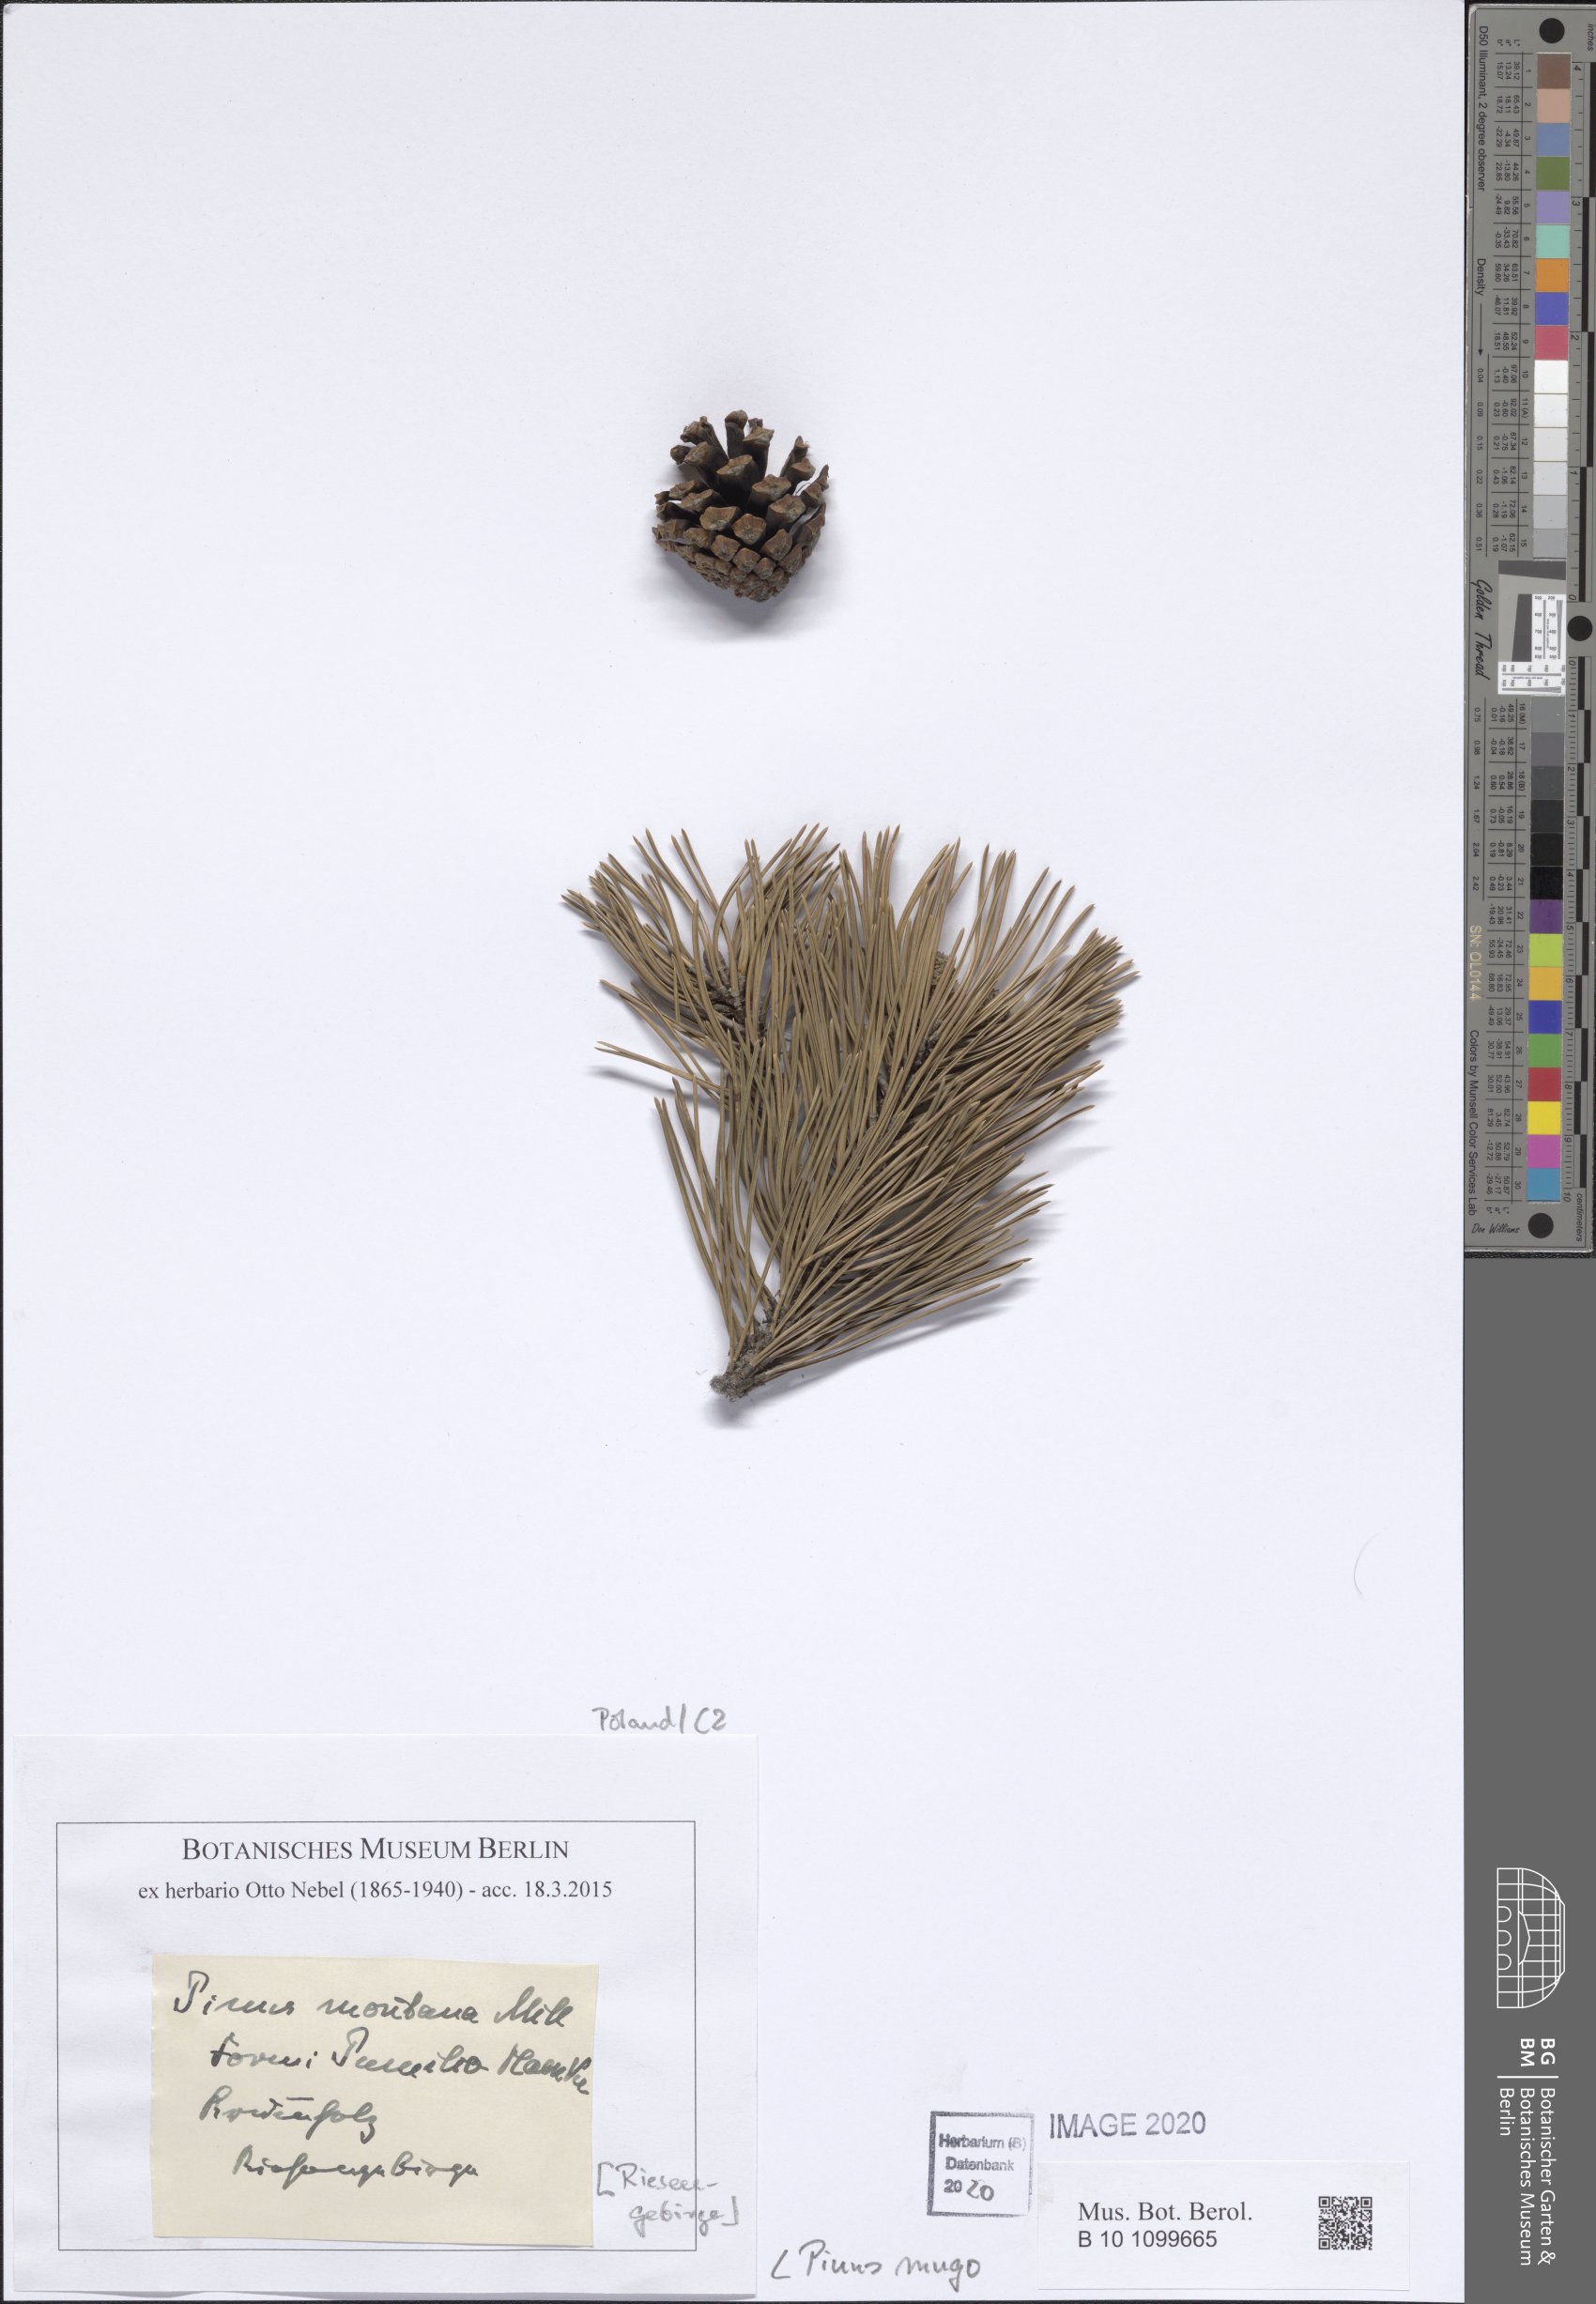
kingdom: Plantae
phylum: Tracheophyta
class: Pinopsida
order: Pinales
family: Pinaceae
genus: Pinus
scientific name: Pinus mugo
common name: Mugo pine
